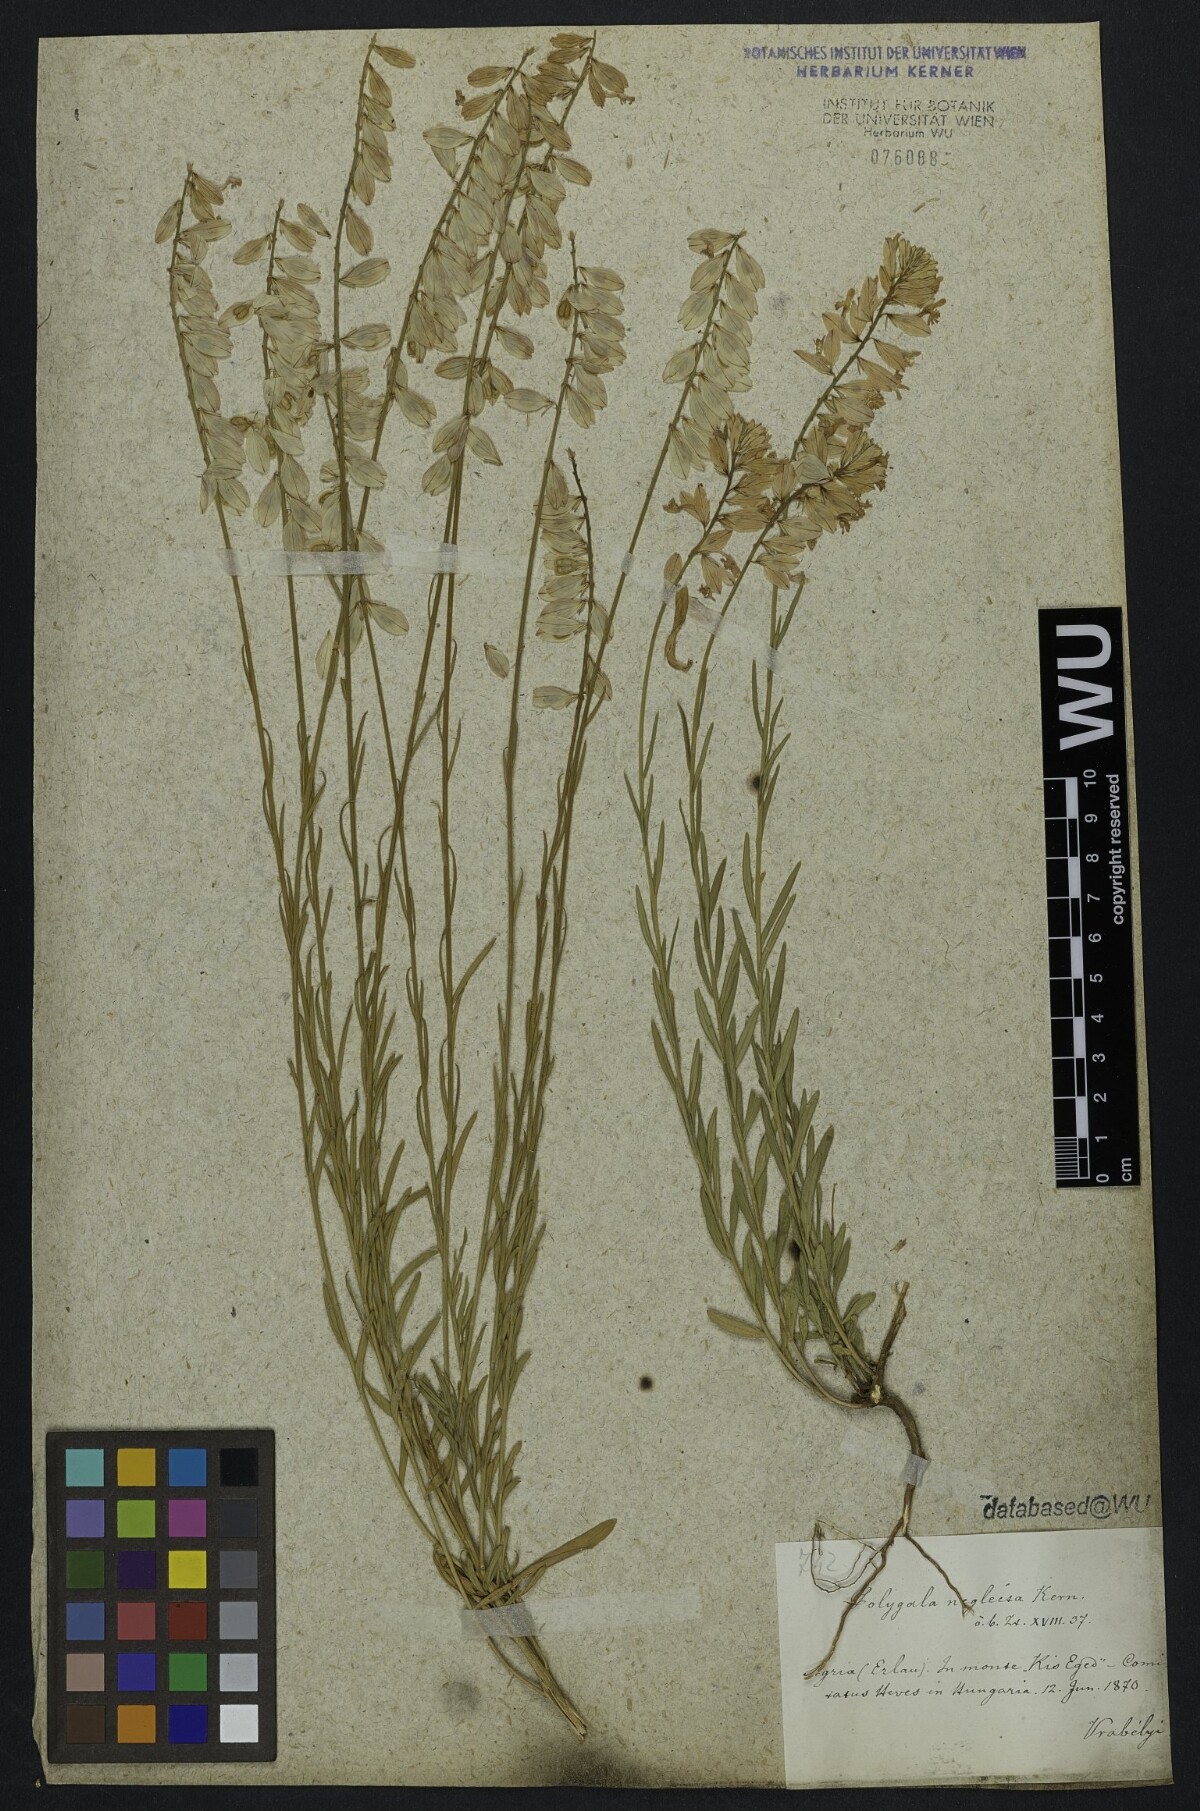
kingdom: Plantae
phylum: Tracheophyta
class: Magnoliopsida
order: Fabales
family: Polygalaceae
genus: Polygala
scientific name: Polygala major
